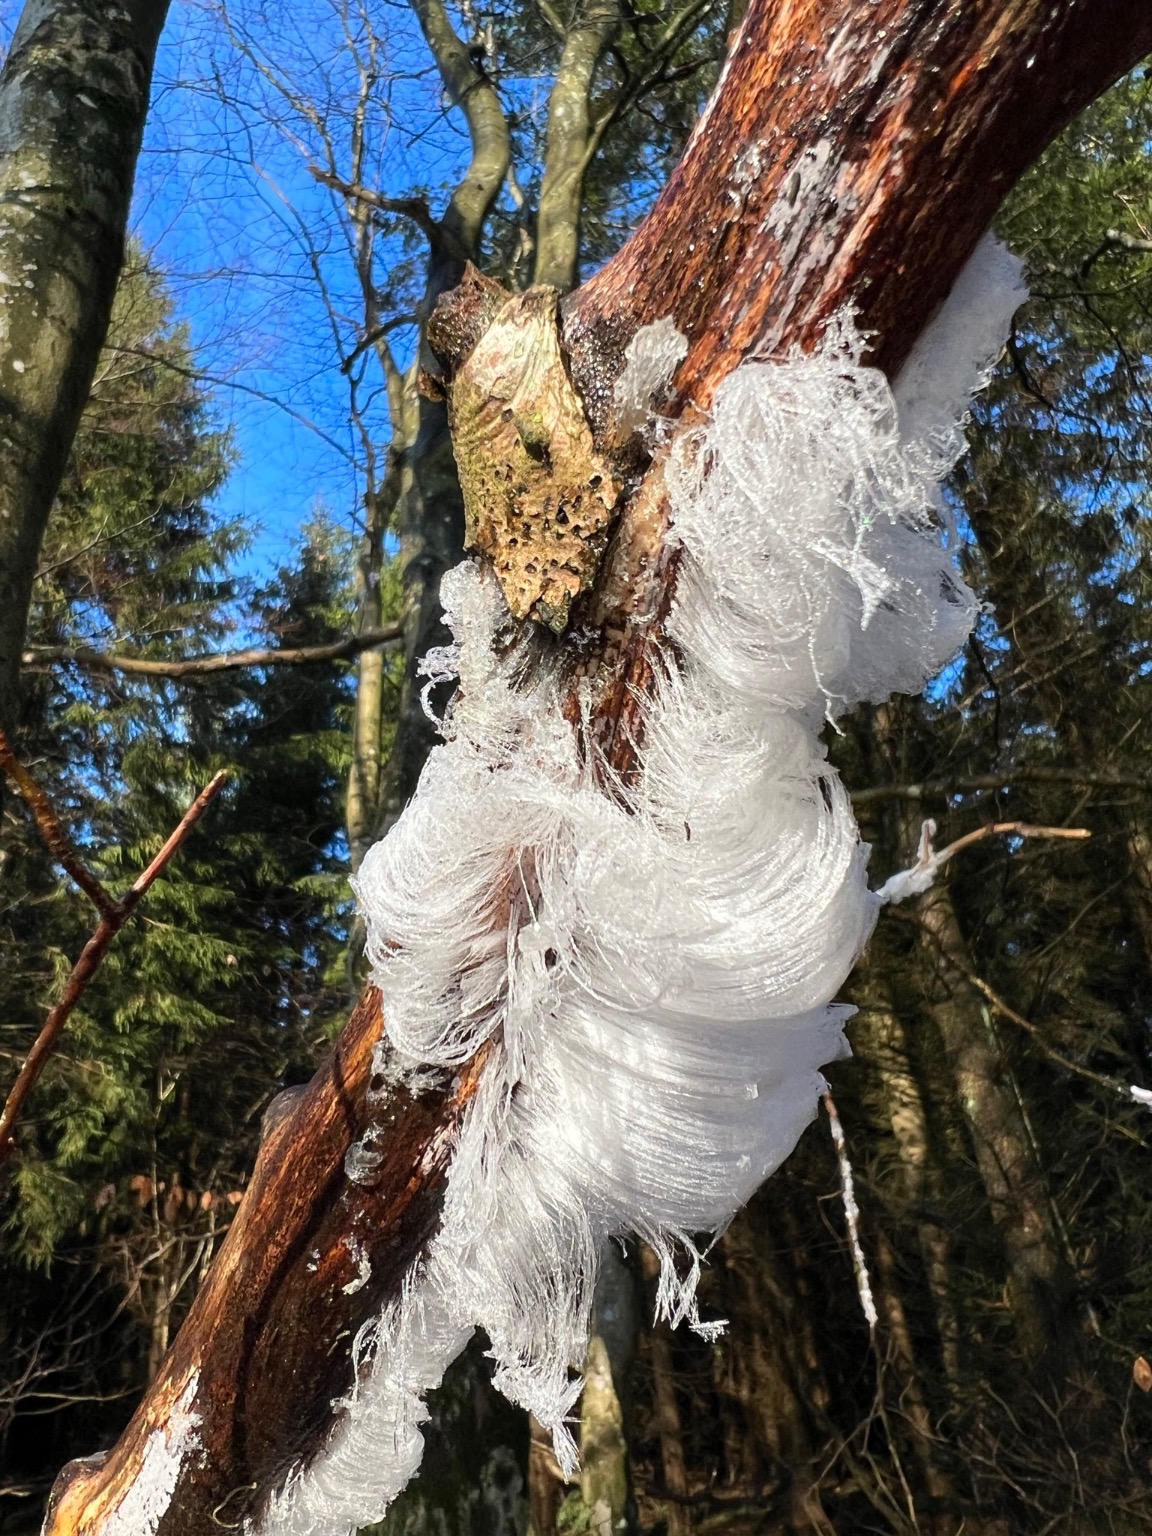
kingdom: Fungi
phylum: Basidiomycota
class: Tremellomycetes
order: Tremellales
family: Exidiaceae
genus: Exidiopsis
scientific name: Exidiopsis effusa
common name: Smuk bævrehinde
